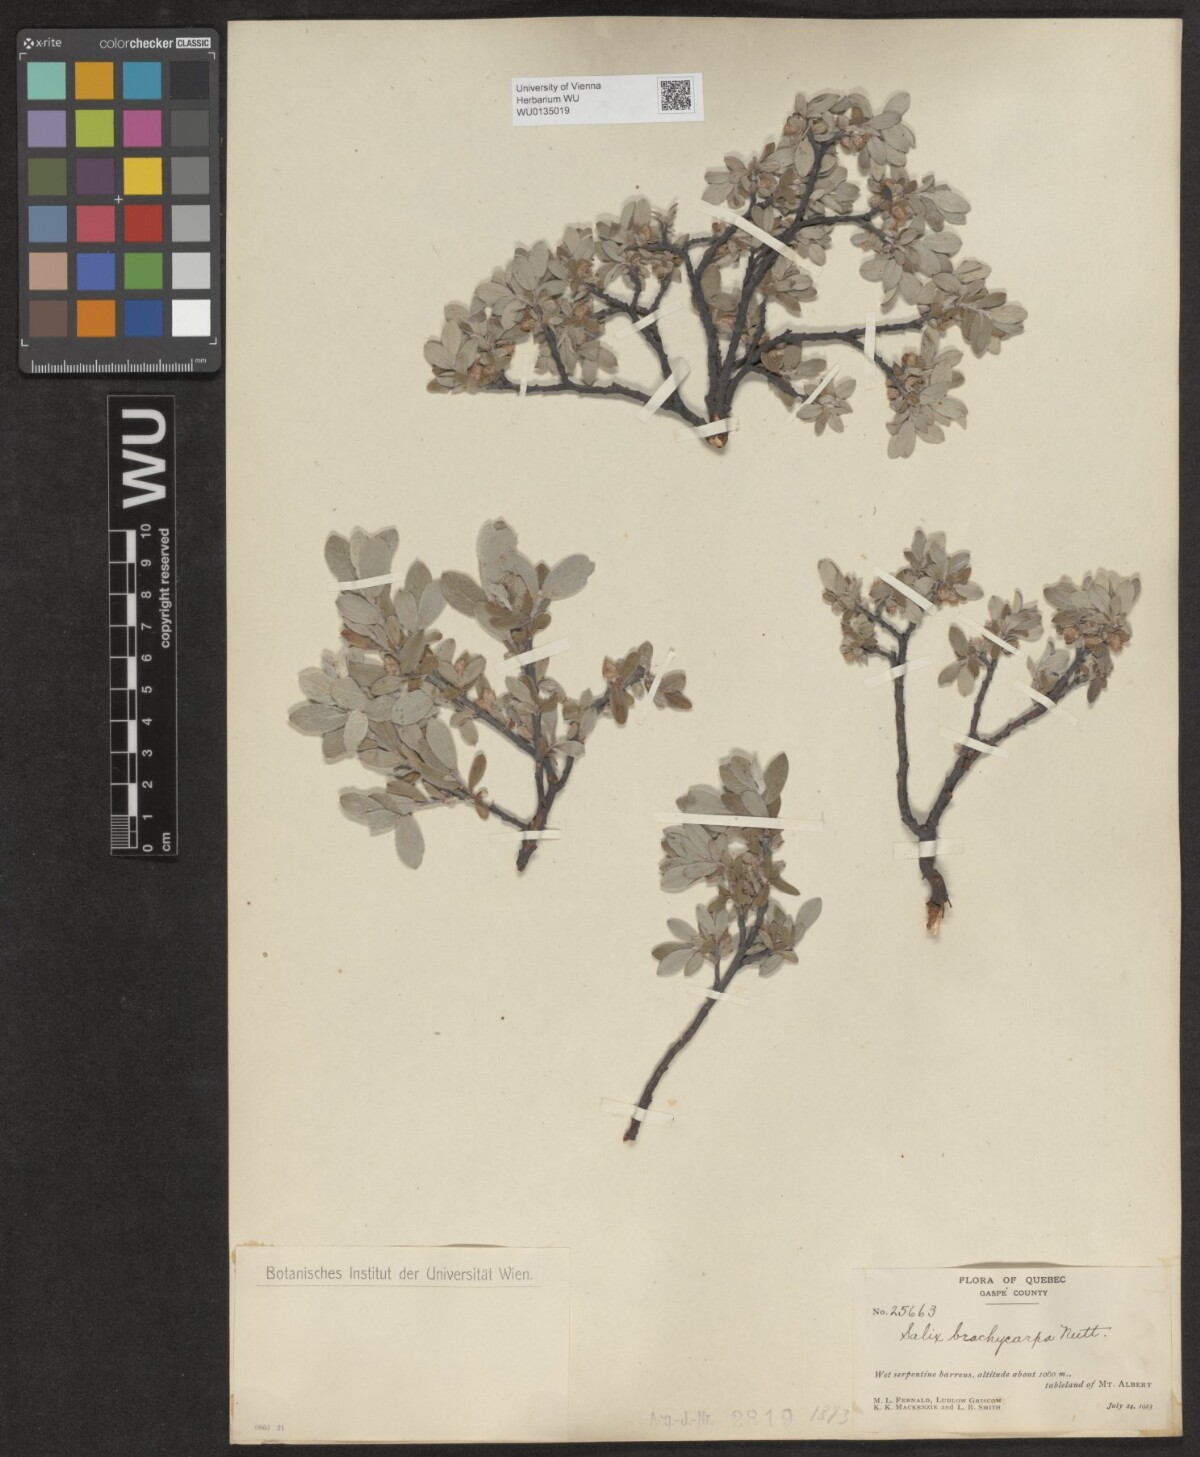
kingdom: Plantae
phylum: Tracheophyta
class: Magnoliopsida
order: Malpighiales
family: Salicaceae
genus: Salix
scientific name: Salix brachycarpa
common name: Barren-ground willow
